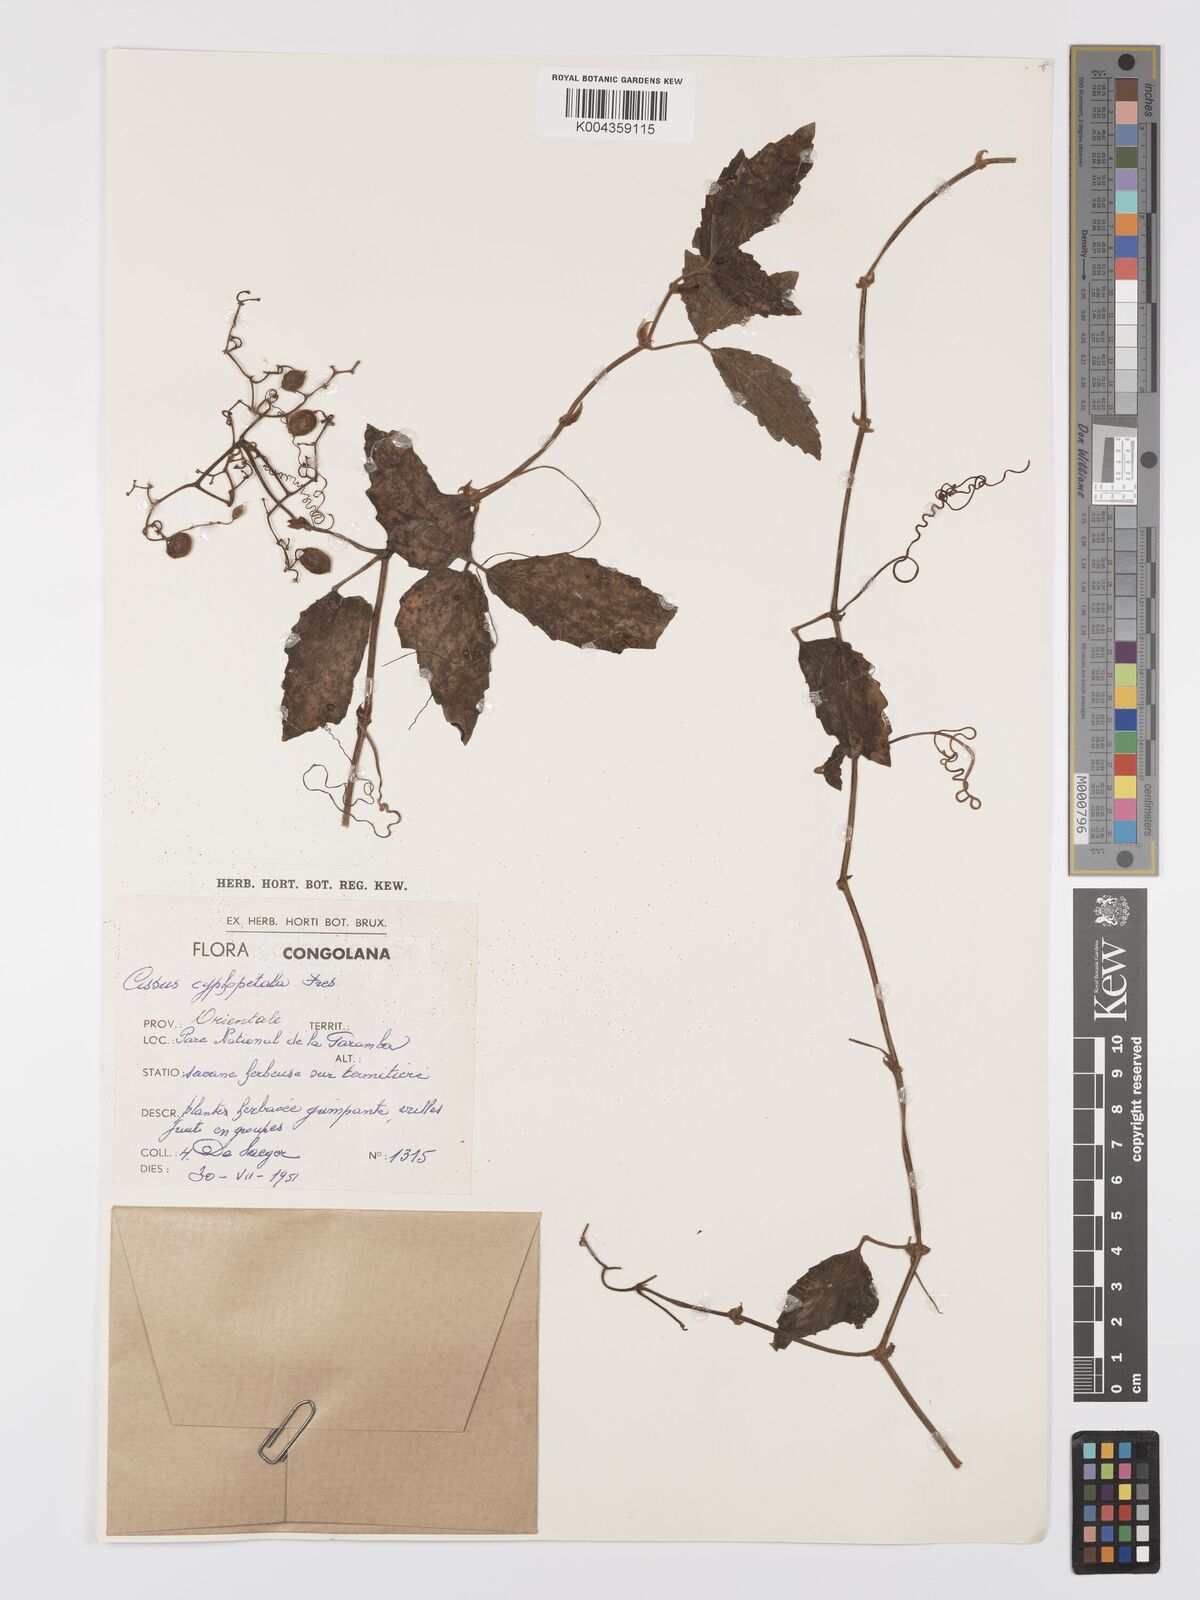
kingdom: Plantae
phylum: Tracheophyta
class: Magnoliopsida
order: Vitales
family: Vitaceae
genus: Cyphostemma
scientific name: Cyphostemma cyphopetalum
